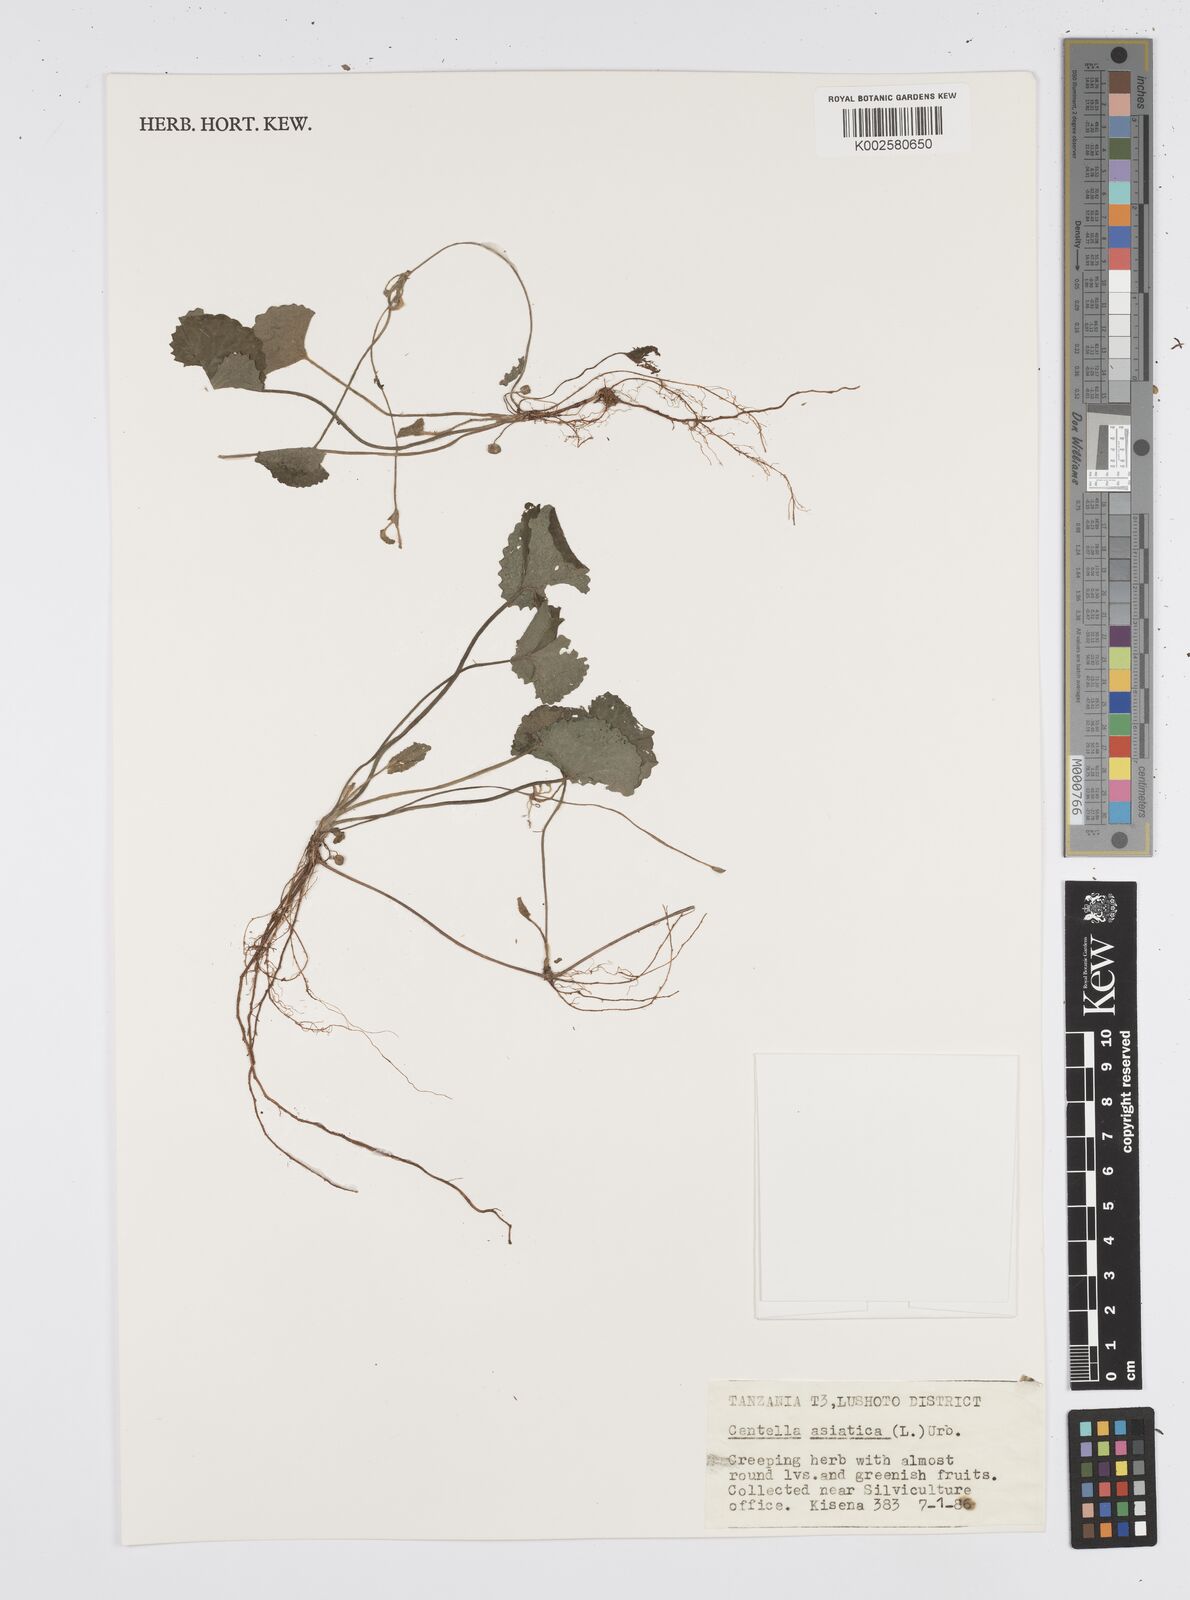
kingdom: Plantae
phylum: Tracheophyta
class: Magnoliopsida
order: Apiales
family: Apiaceae
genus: Centella
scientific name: Centella asiatica
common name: Spadeleaf
